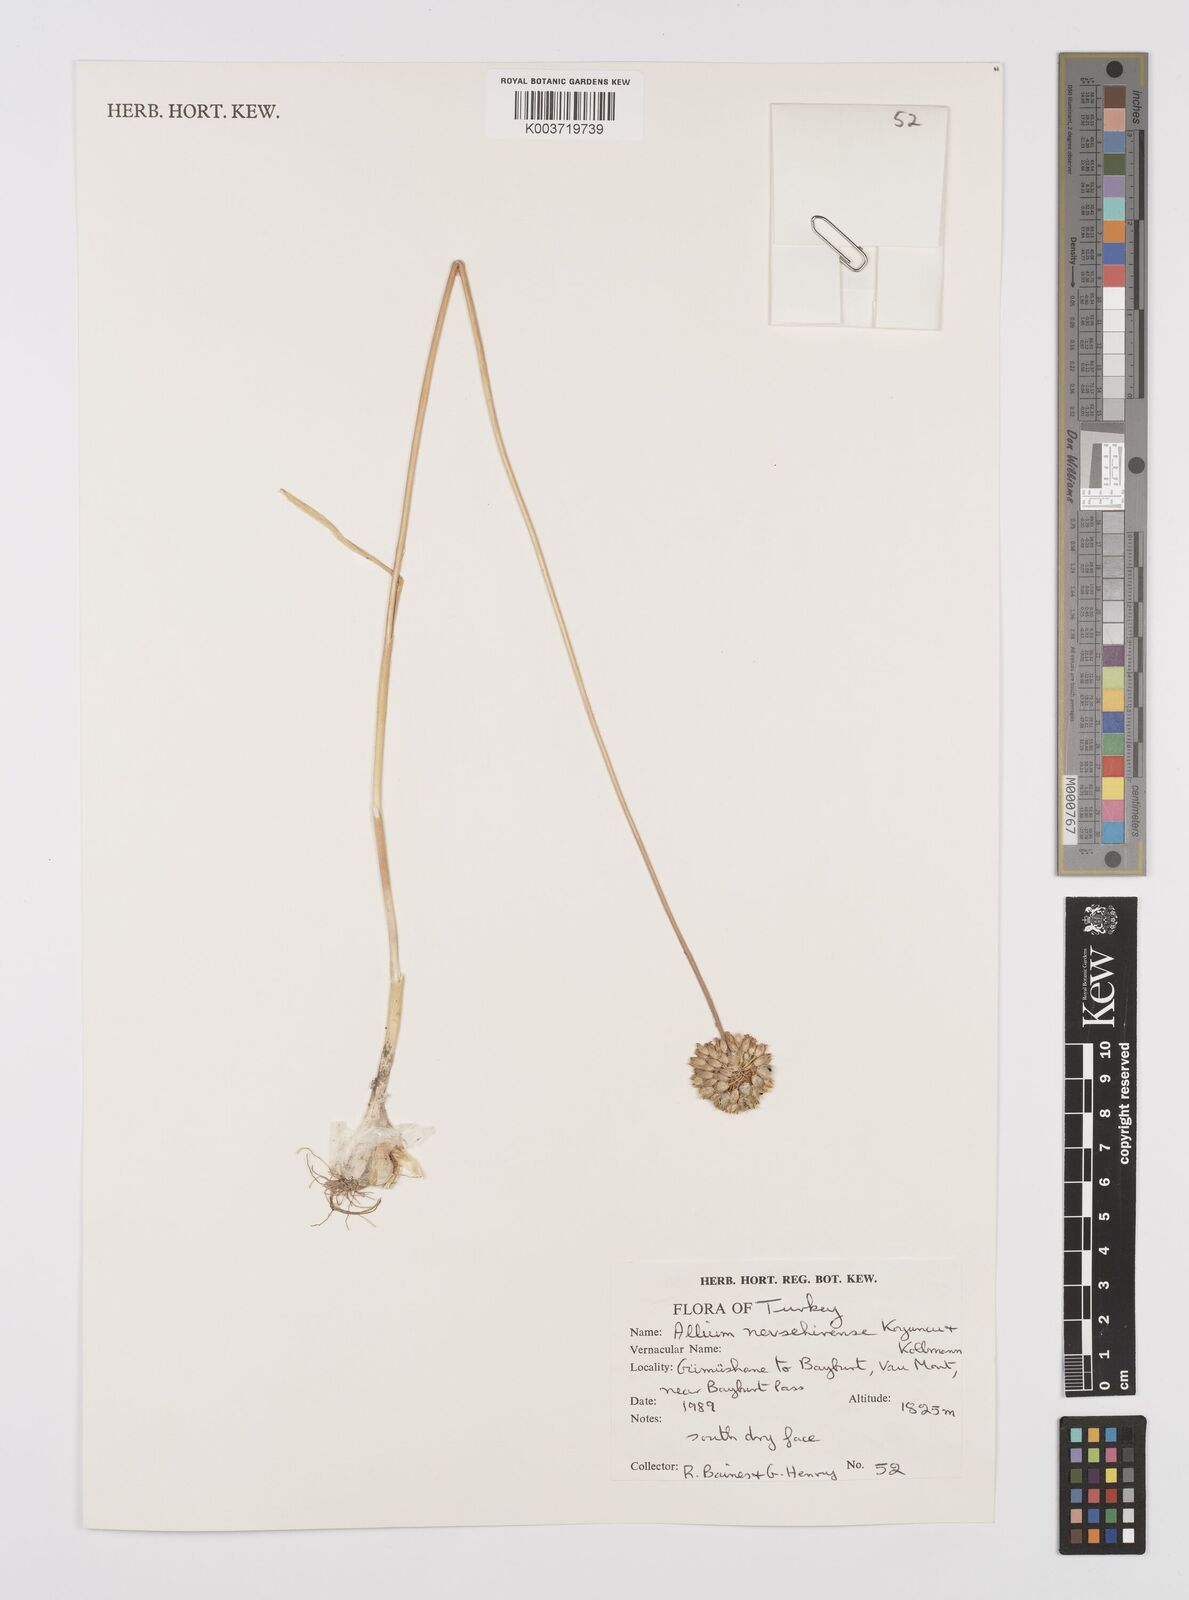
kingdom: Plantae
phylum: Tracheophyta
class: Liliopsida
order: Asparagales
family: Amaryllidaceae
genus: Allium
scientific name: Allium nevsehirense
